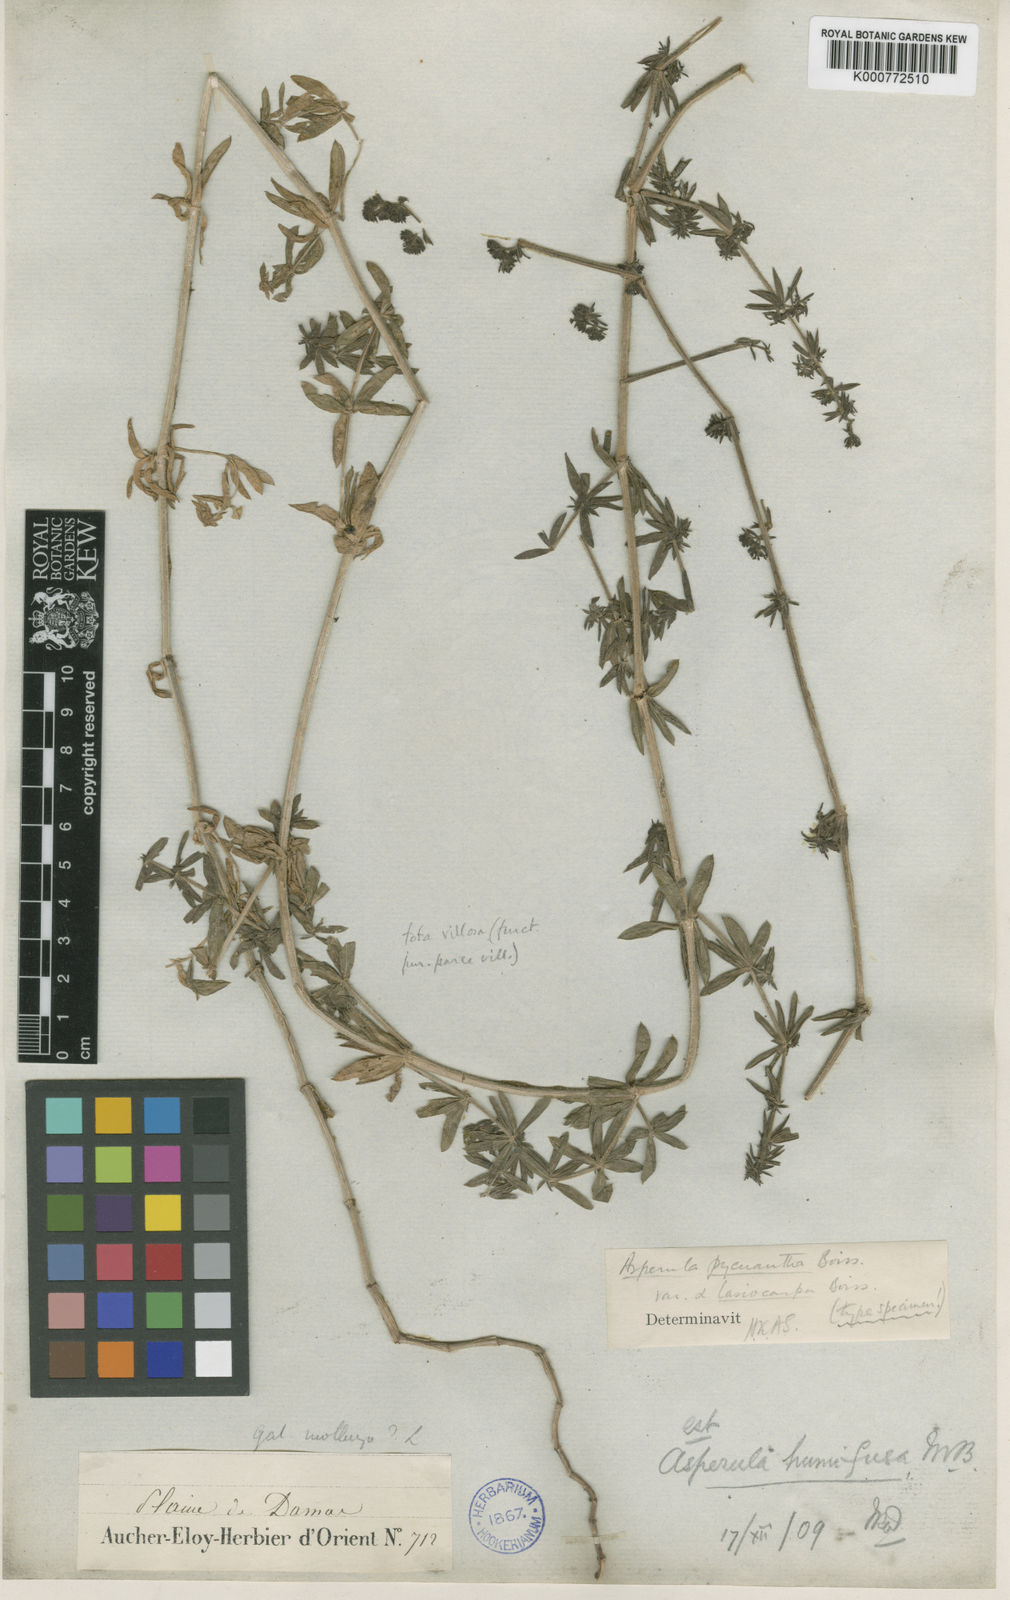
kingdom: Plantae
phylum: Tracheophyta
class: Magnoliopsida
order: Gentianales
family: Rubiaceae
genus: Galium
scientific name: Galium humifusum
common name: Spreading bedstraw
